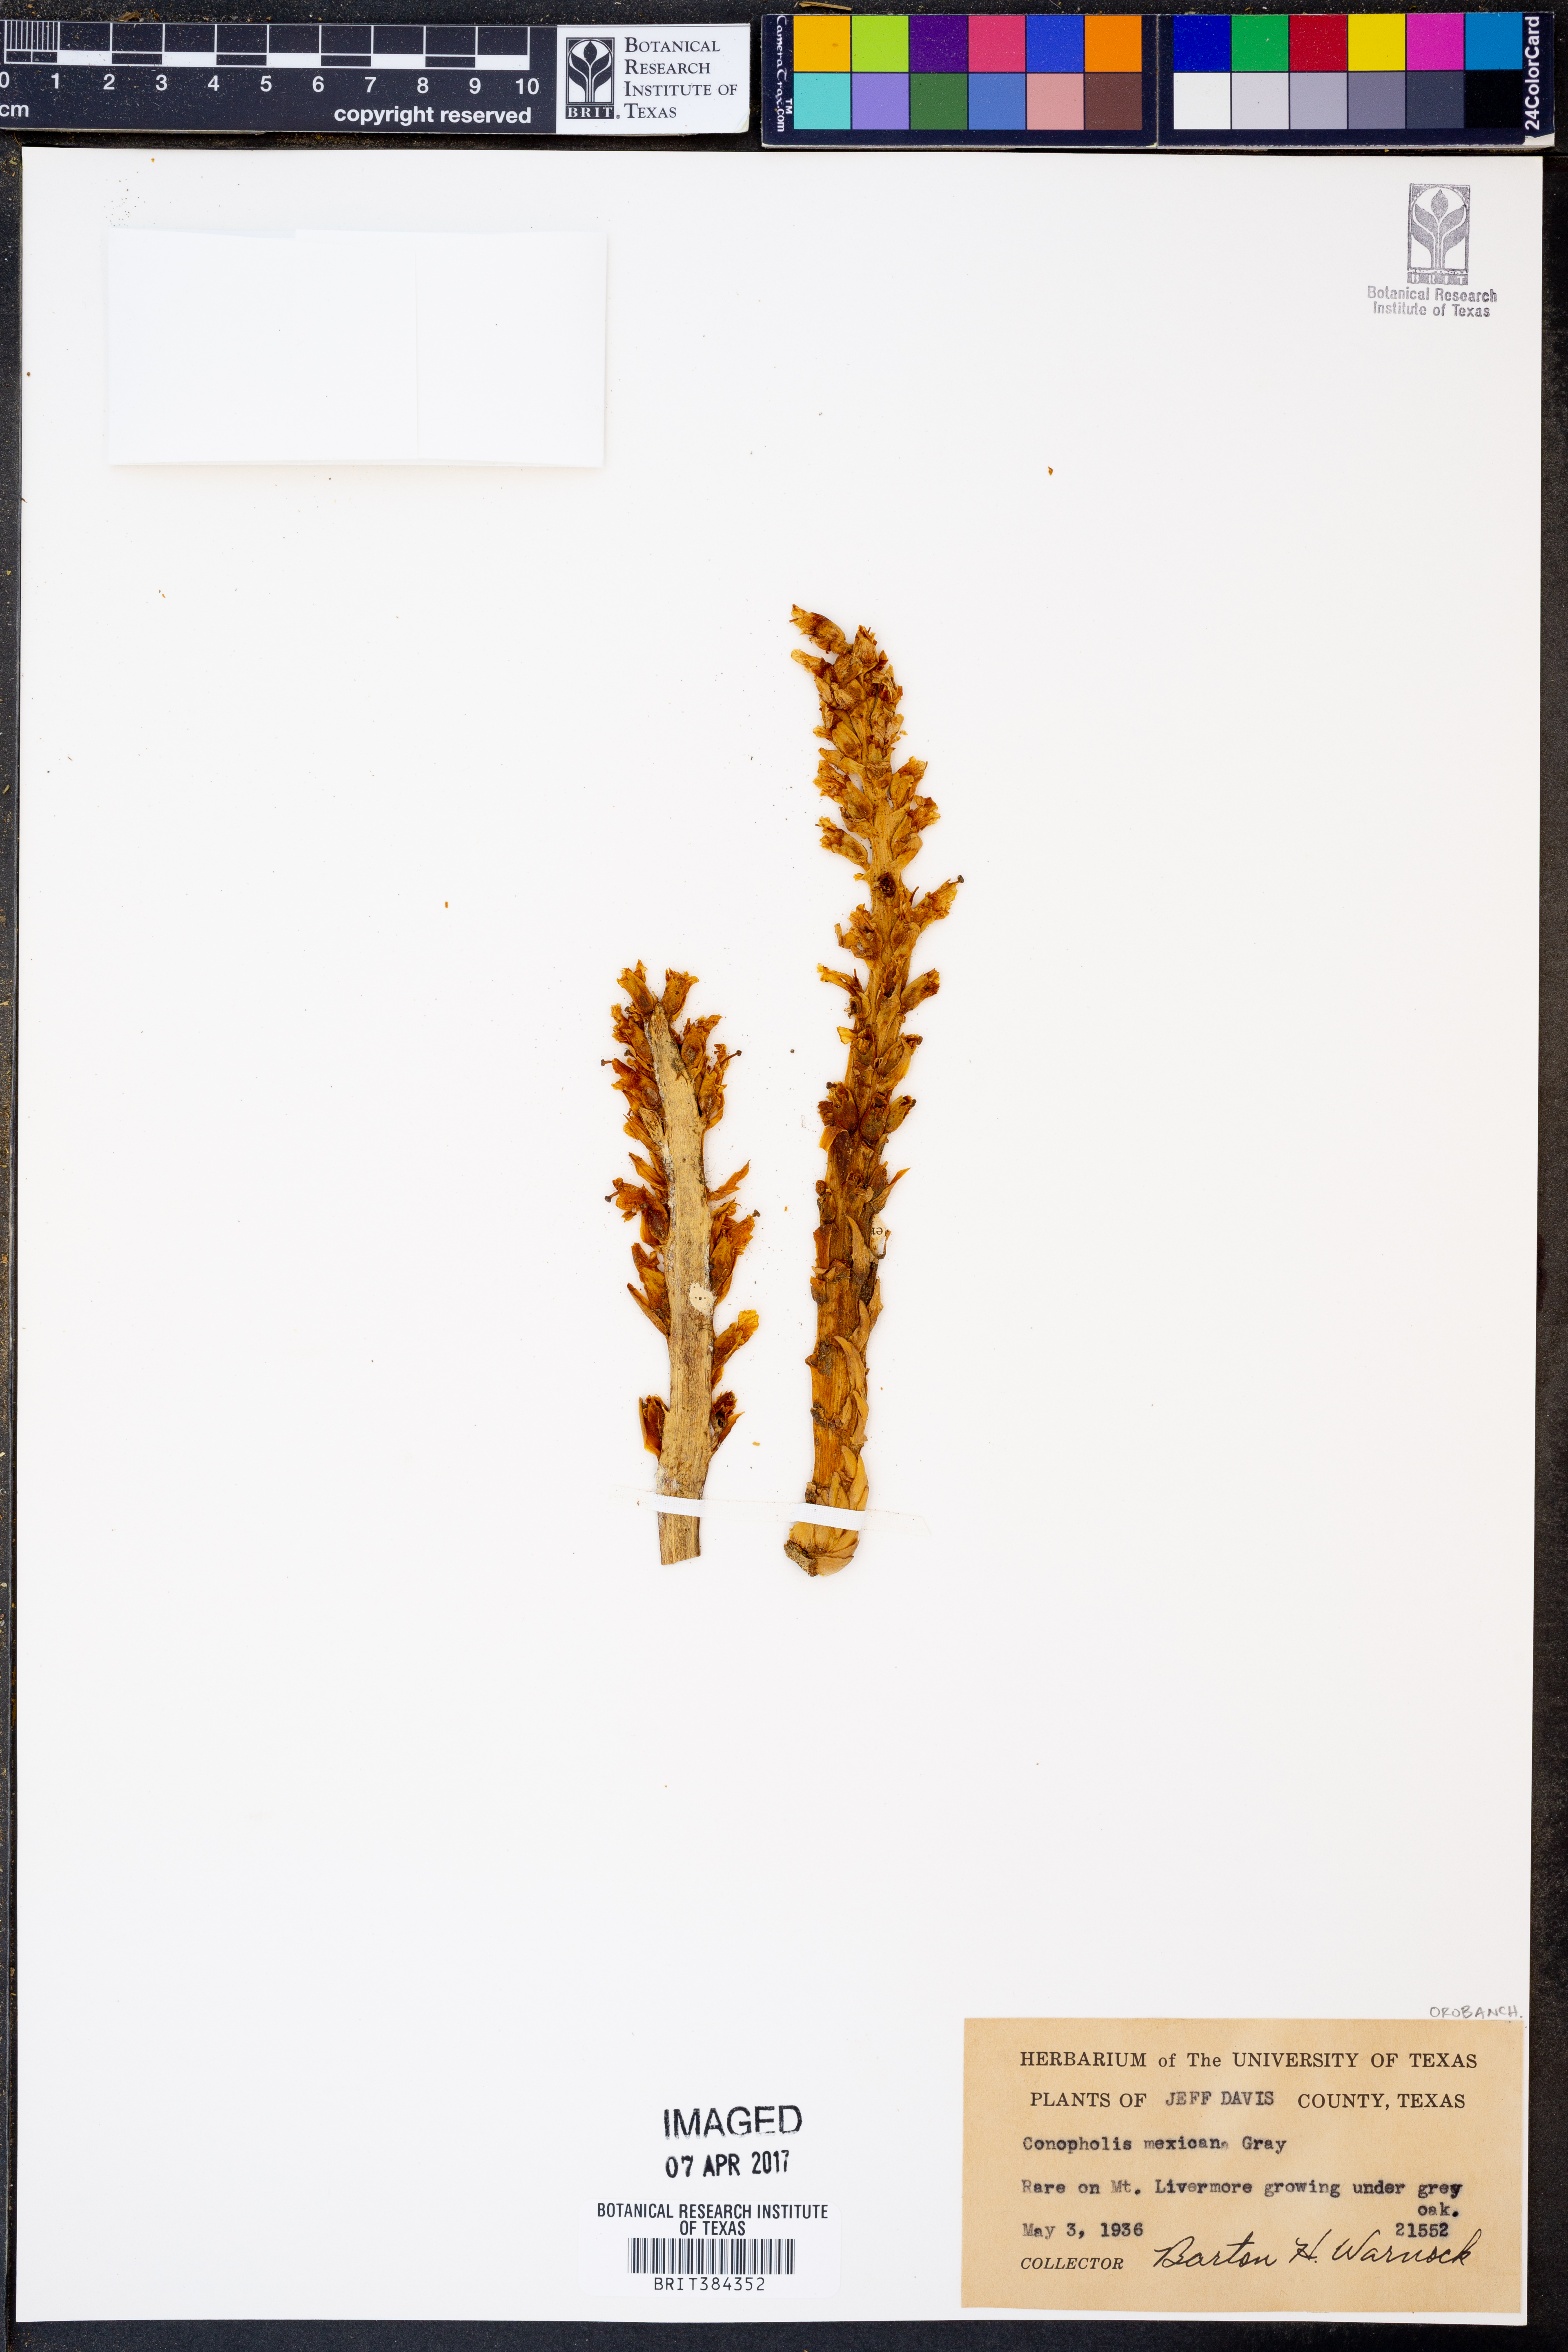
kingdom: Plantae
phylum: Tracheophyta
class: Magnoliopsida
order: Lamiales
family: Orobanchaceae
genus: Conopholis
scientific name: Conopholis alpina
